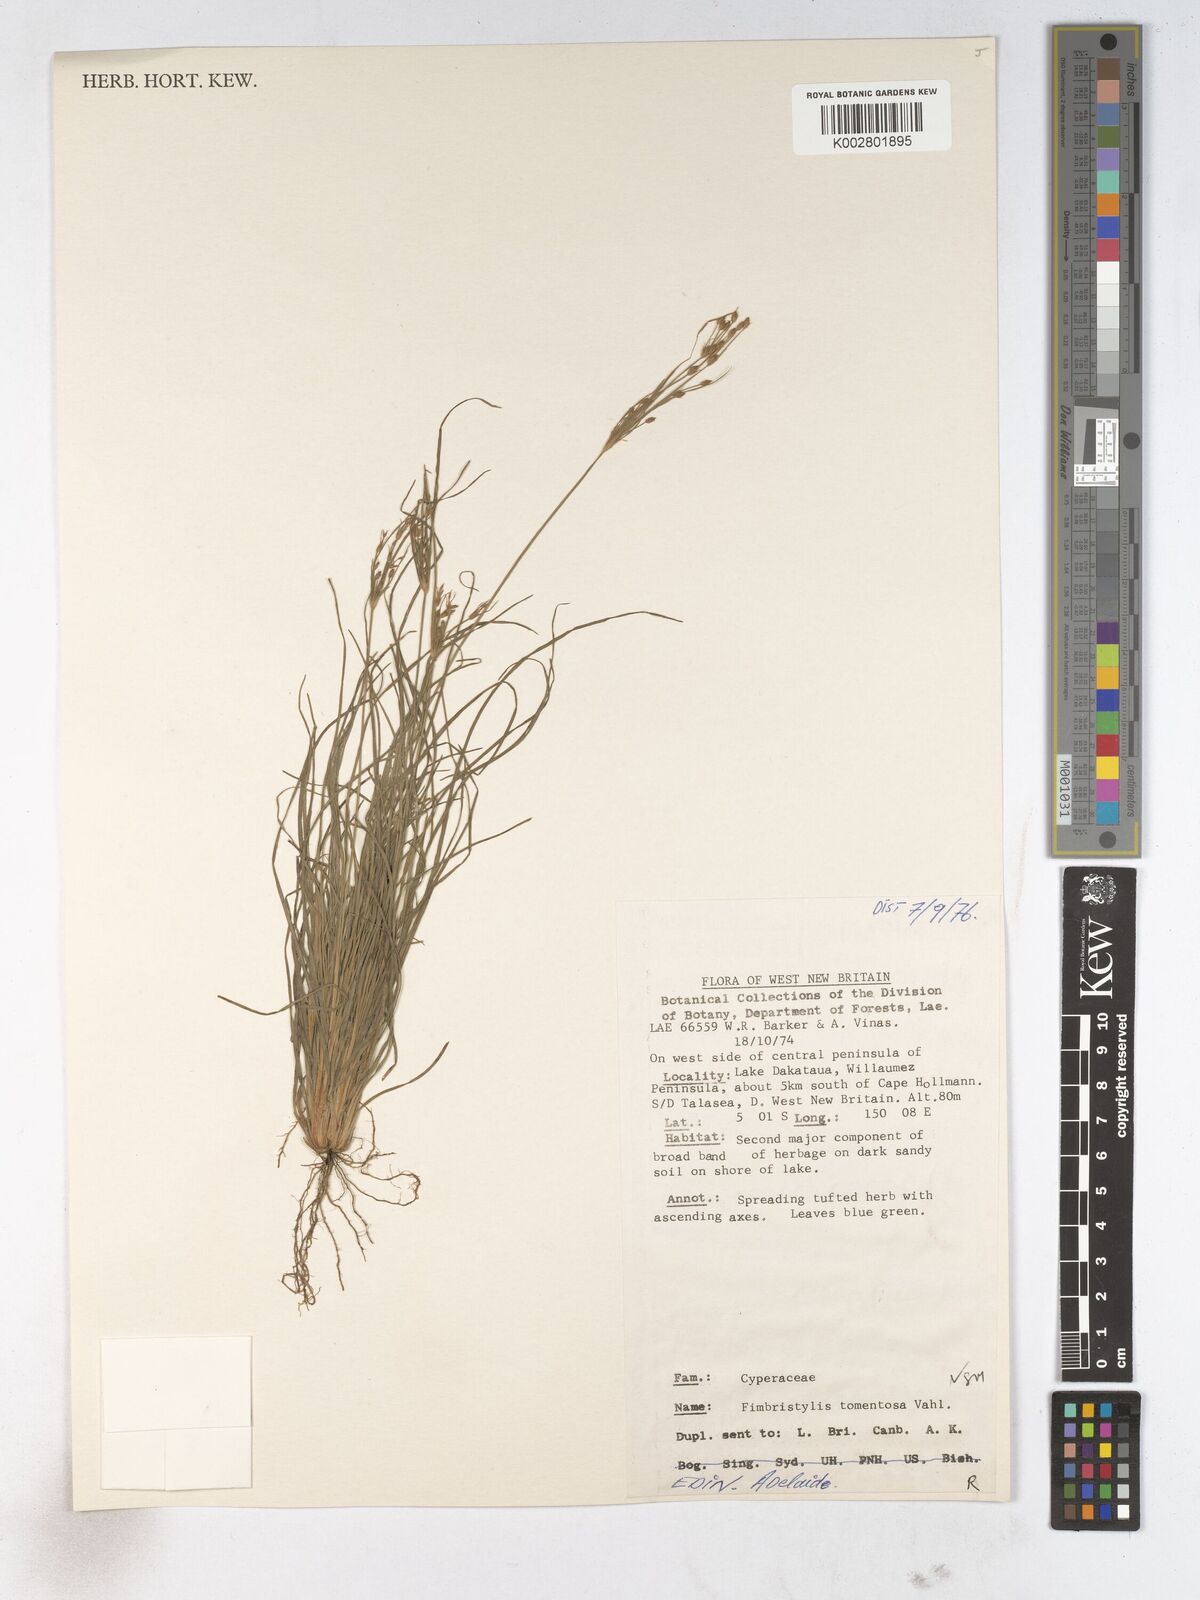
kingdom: Plantae
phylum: Tracheophyta
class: Liliopsida
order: Poales
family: Cyperaceae
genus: Fimbristylis
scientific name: Fimbristylis dichotoma
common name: Forked fimbry
